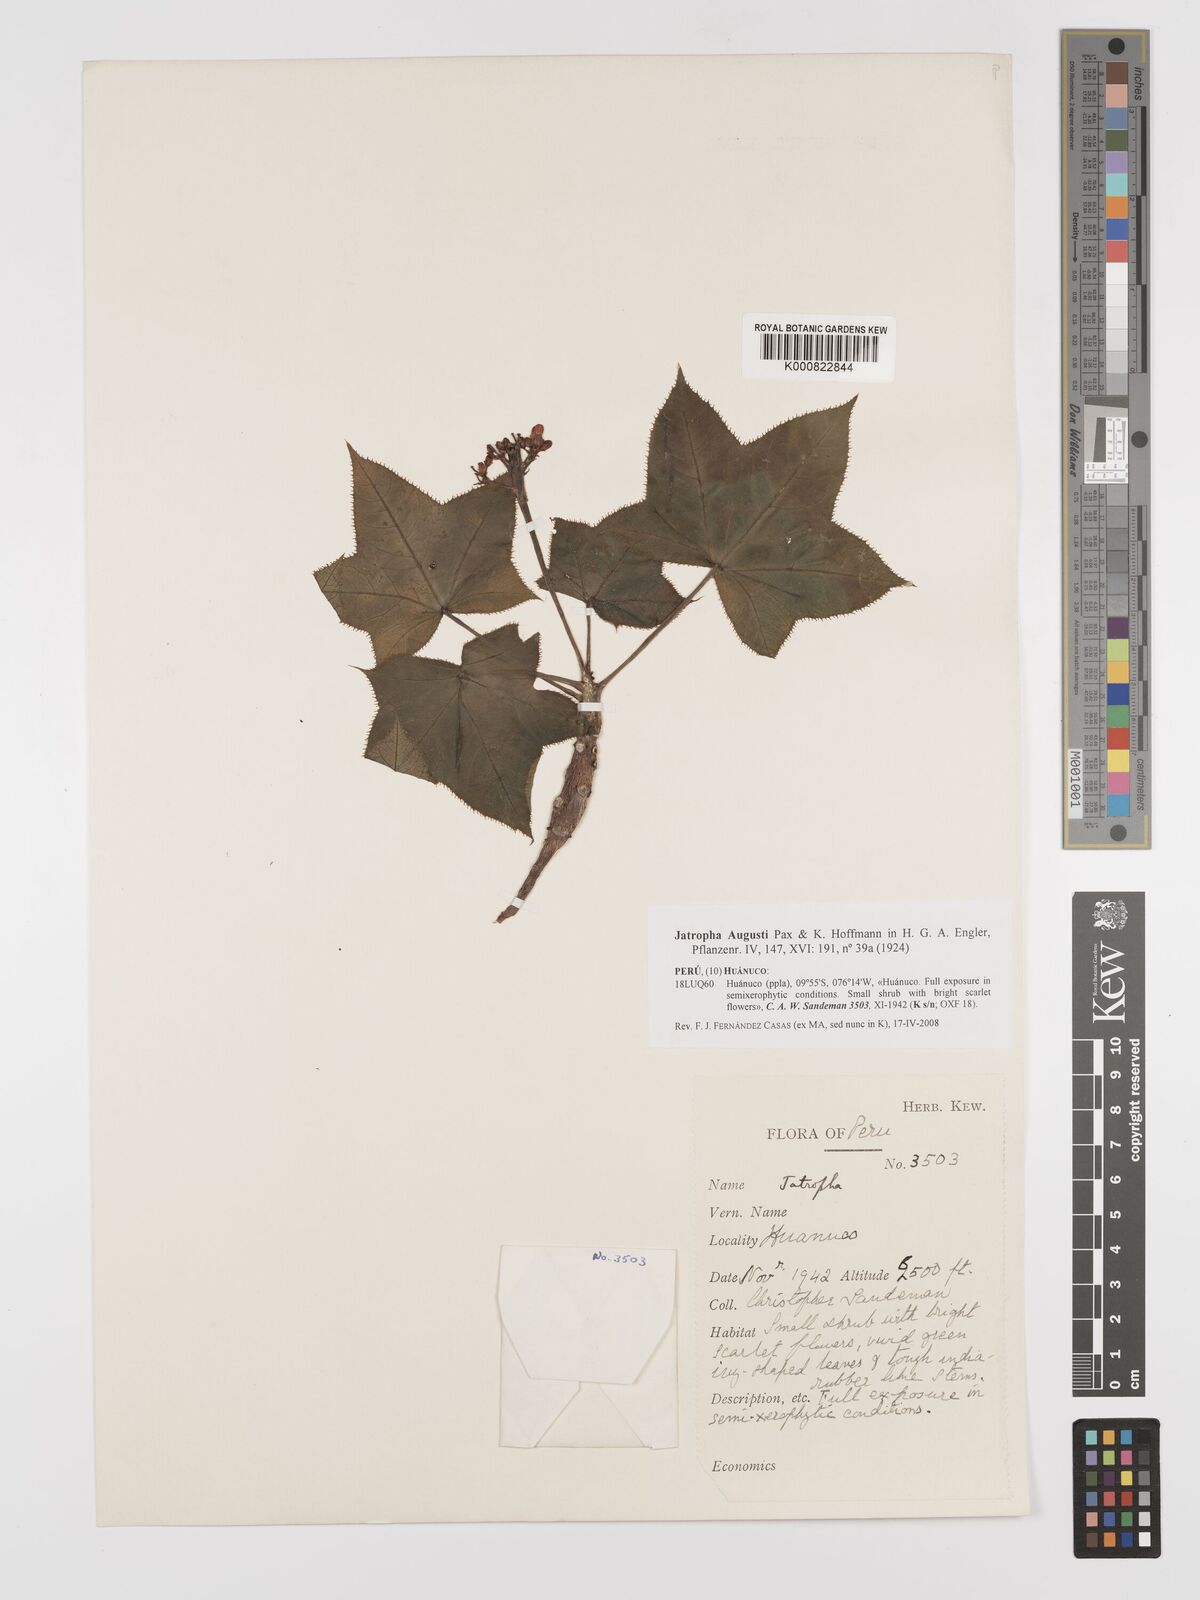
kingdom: Plantae
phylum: Tracheophyta
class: Magnoliopsida
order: Malpighiales
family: Euphorbiaceae
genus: Jatropha
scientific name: Jatropha augusti
